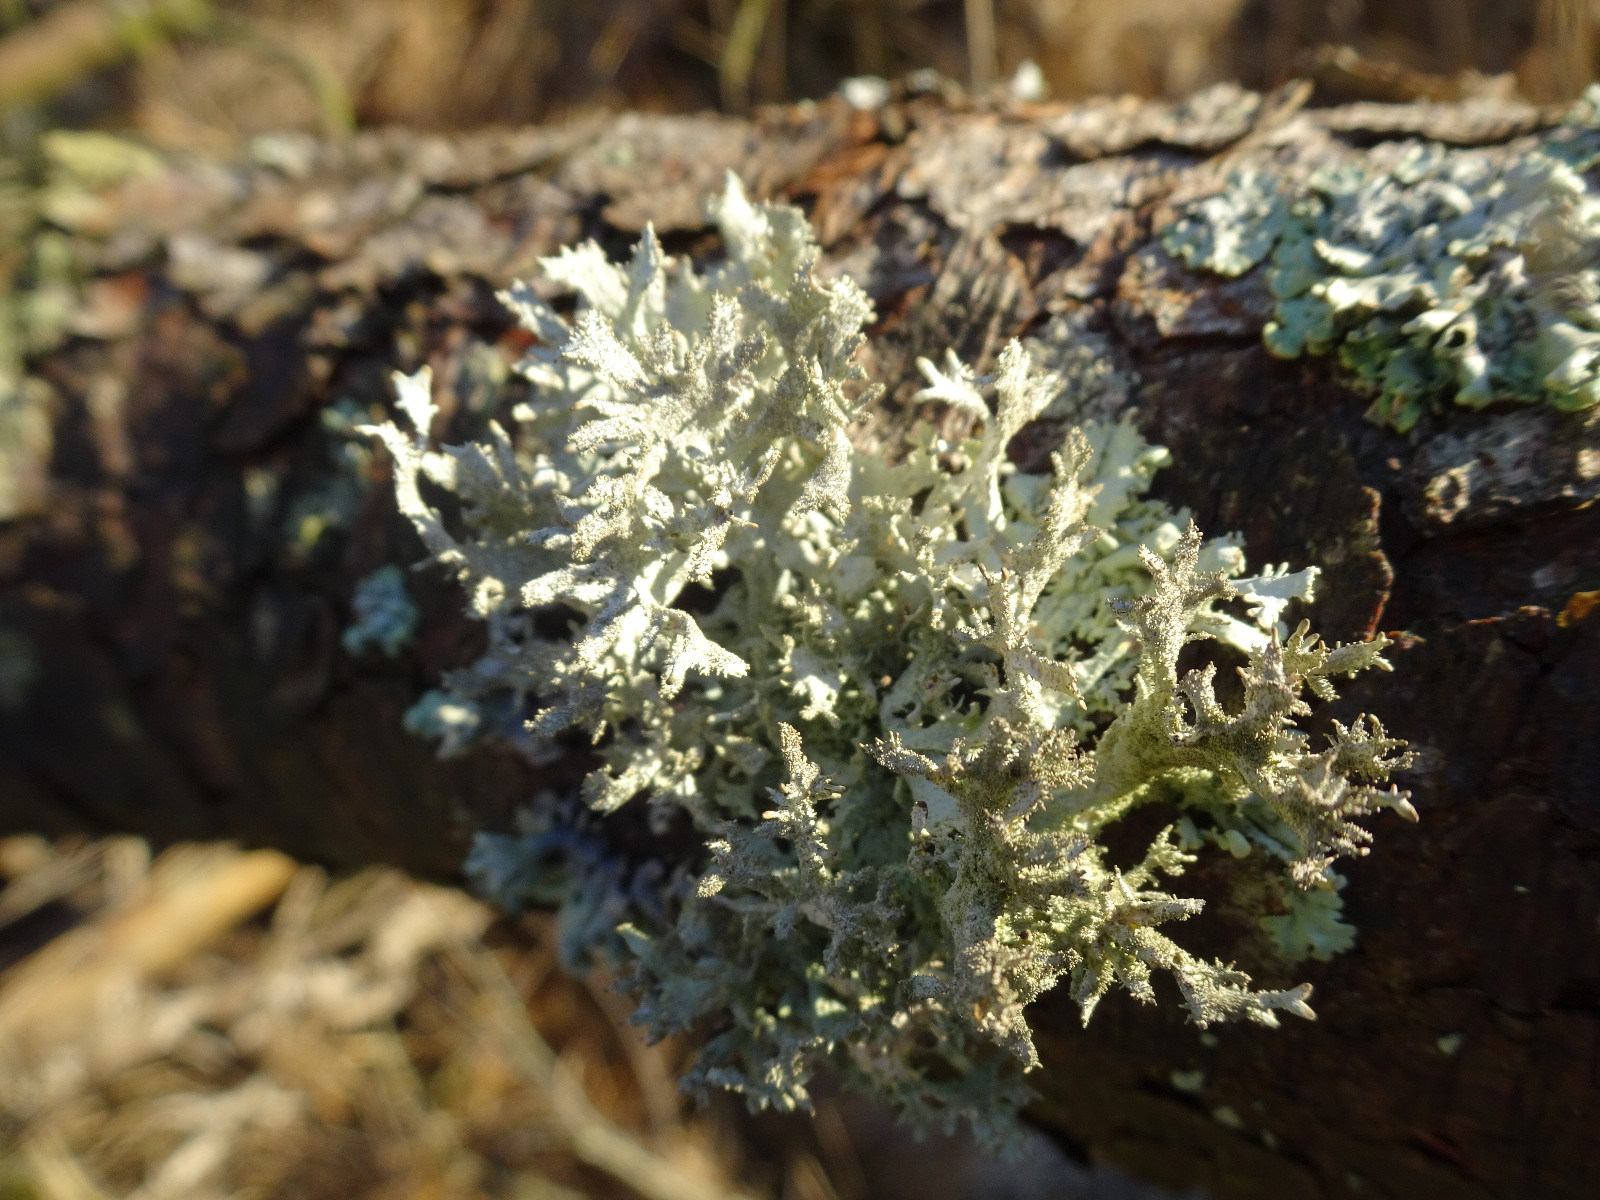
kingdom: Fungi
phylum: Ascomycota
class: Lecanoromycetes
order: Lecanorales
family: Parmeliaceae
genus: Pseudevernia
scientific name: Pseudevernia furfuracea
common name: grå fyrrelav
